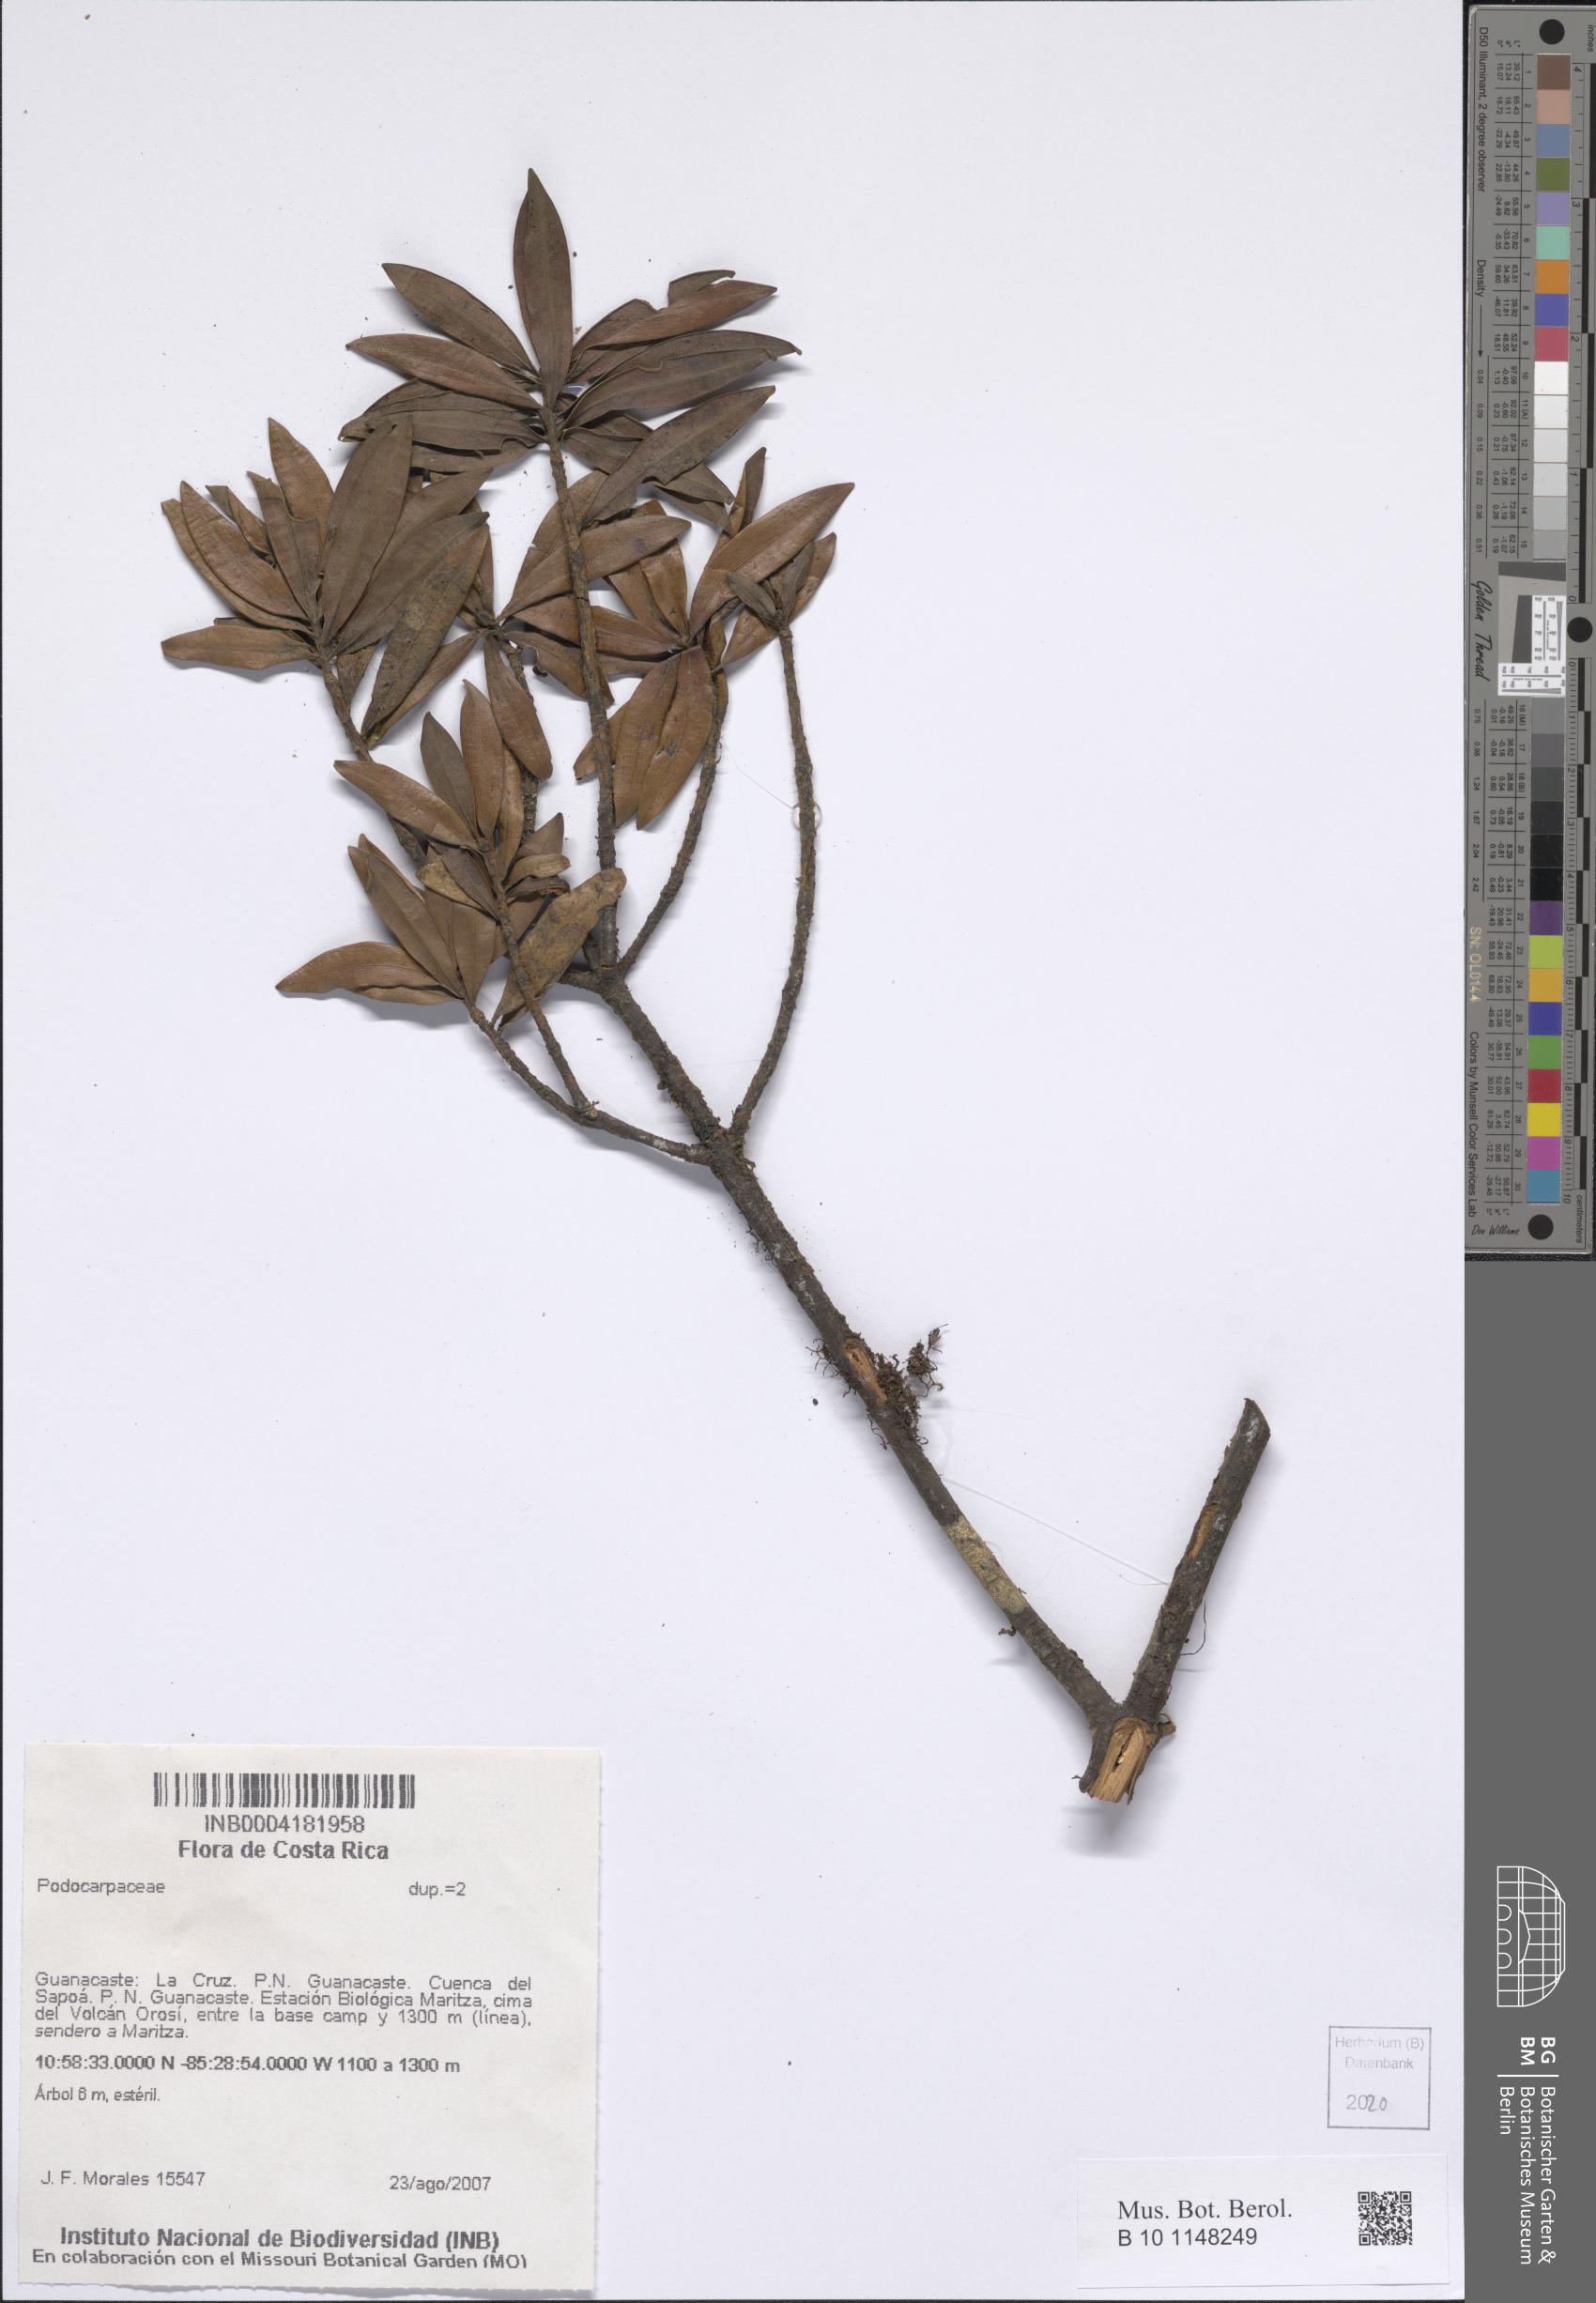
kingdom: Plantae
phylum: Tracheophyta
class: Pinopsida
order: Pinales
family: Podocarpaceae
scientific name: Podocarpaceae
